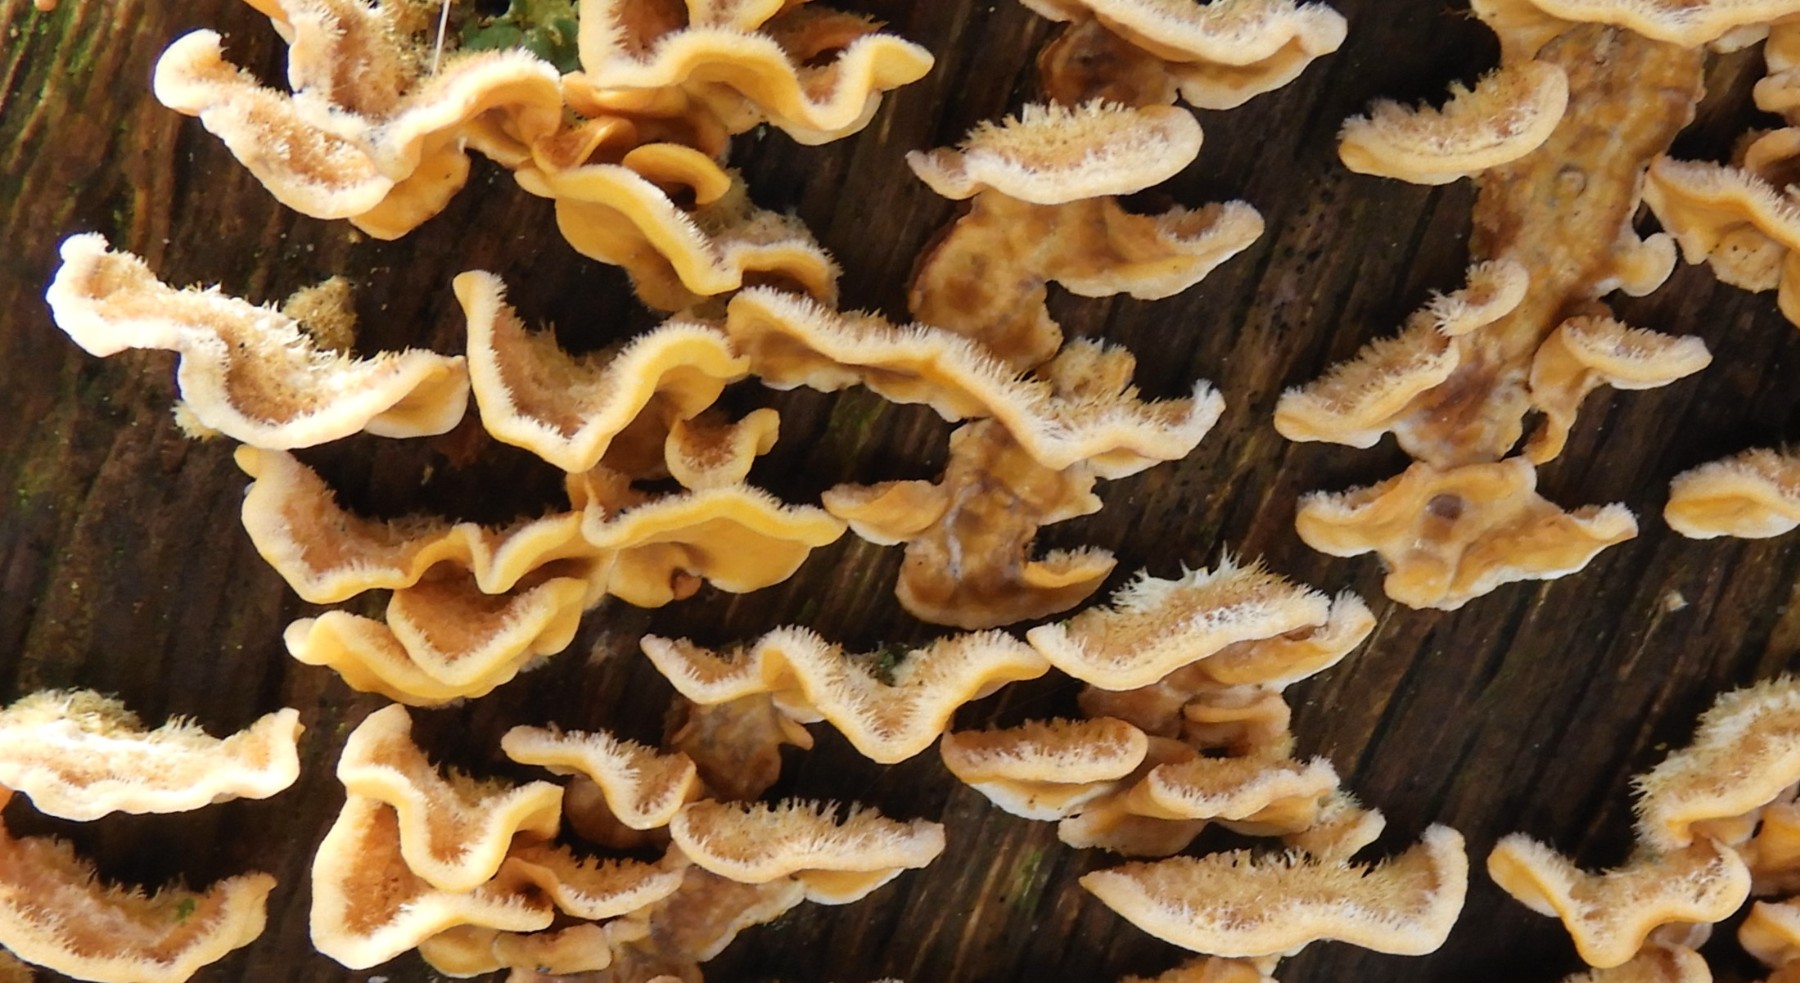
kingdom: Fungi
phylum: Basidiomycota
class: Agaricomycetes
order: Russulales
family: Stereaceae
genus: Stereum
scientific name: Stereum hirsutum
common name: håret lædersvamp
